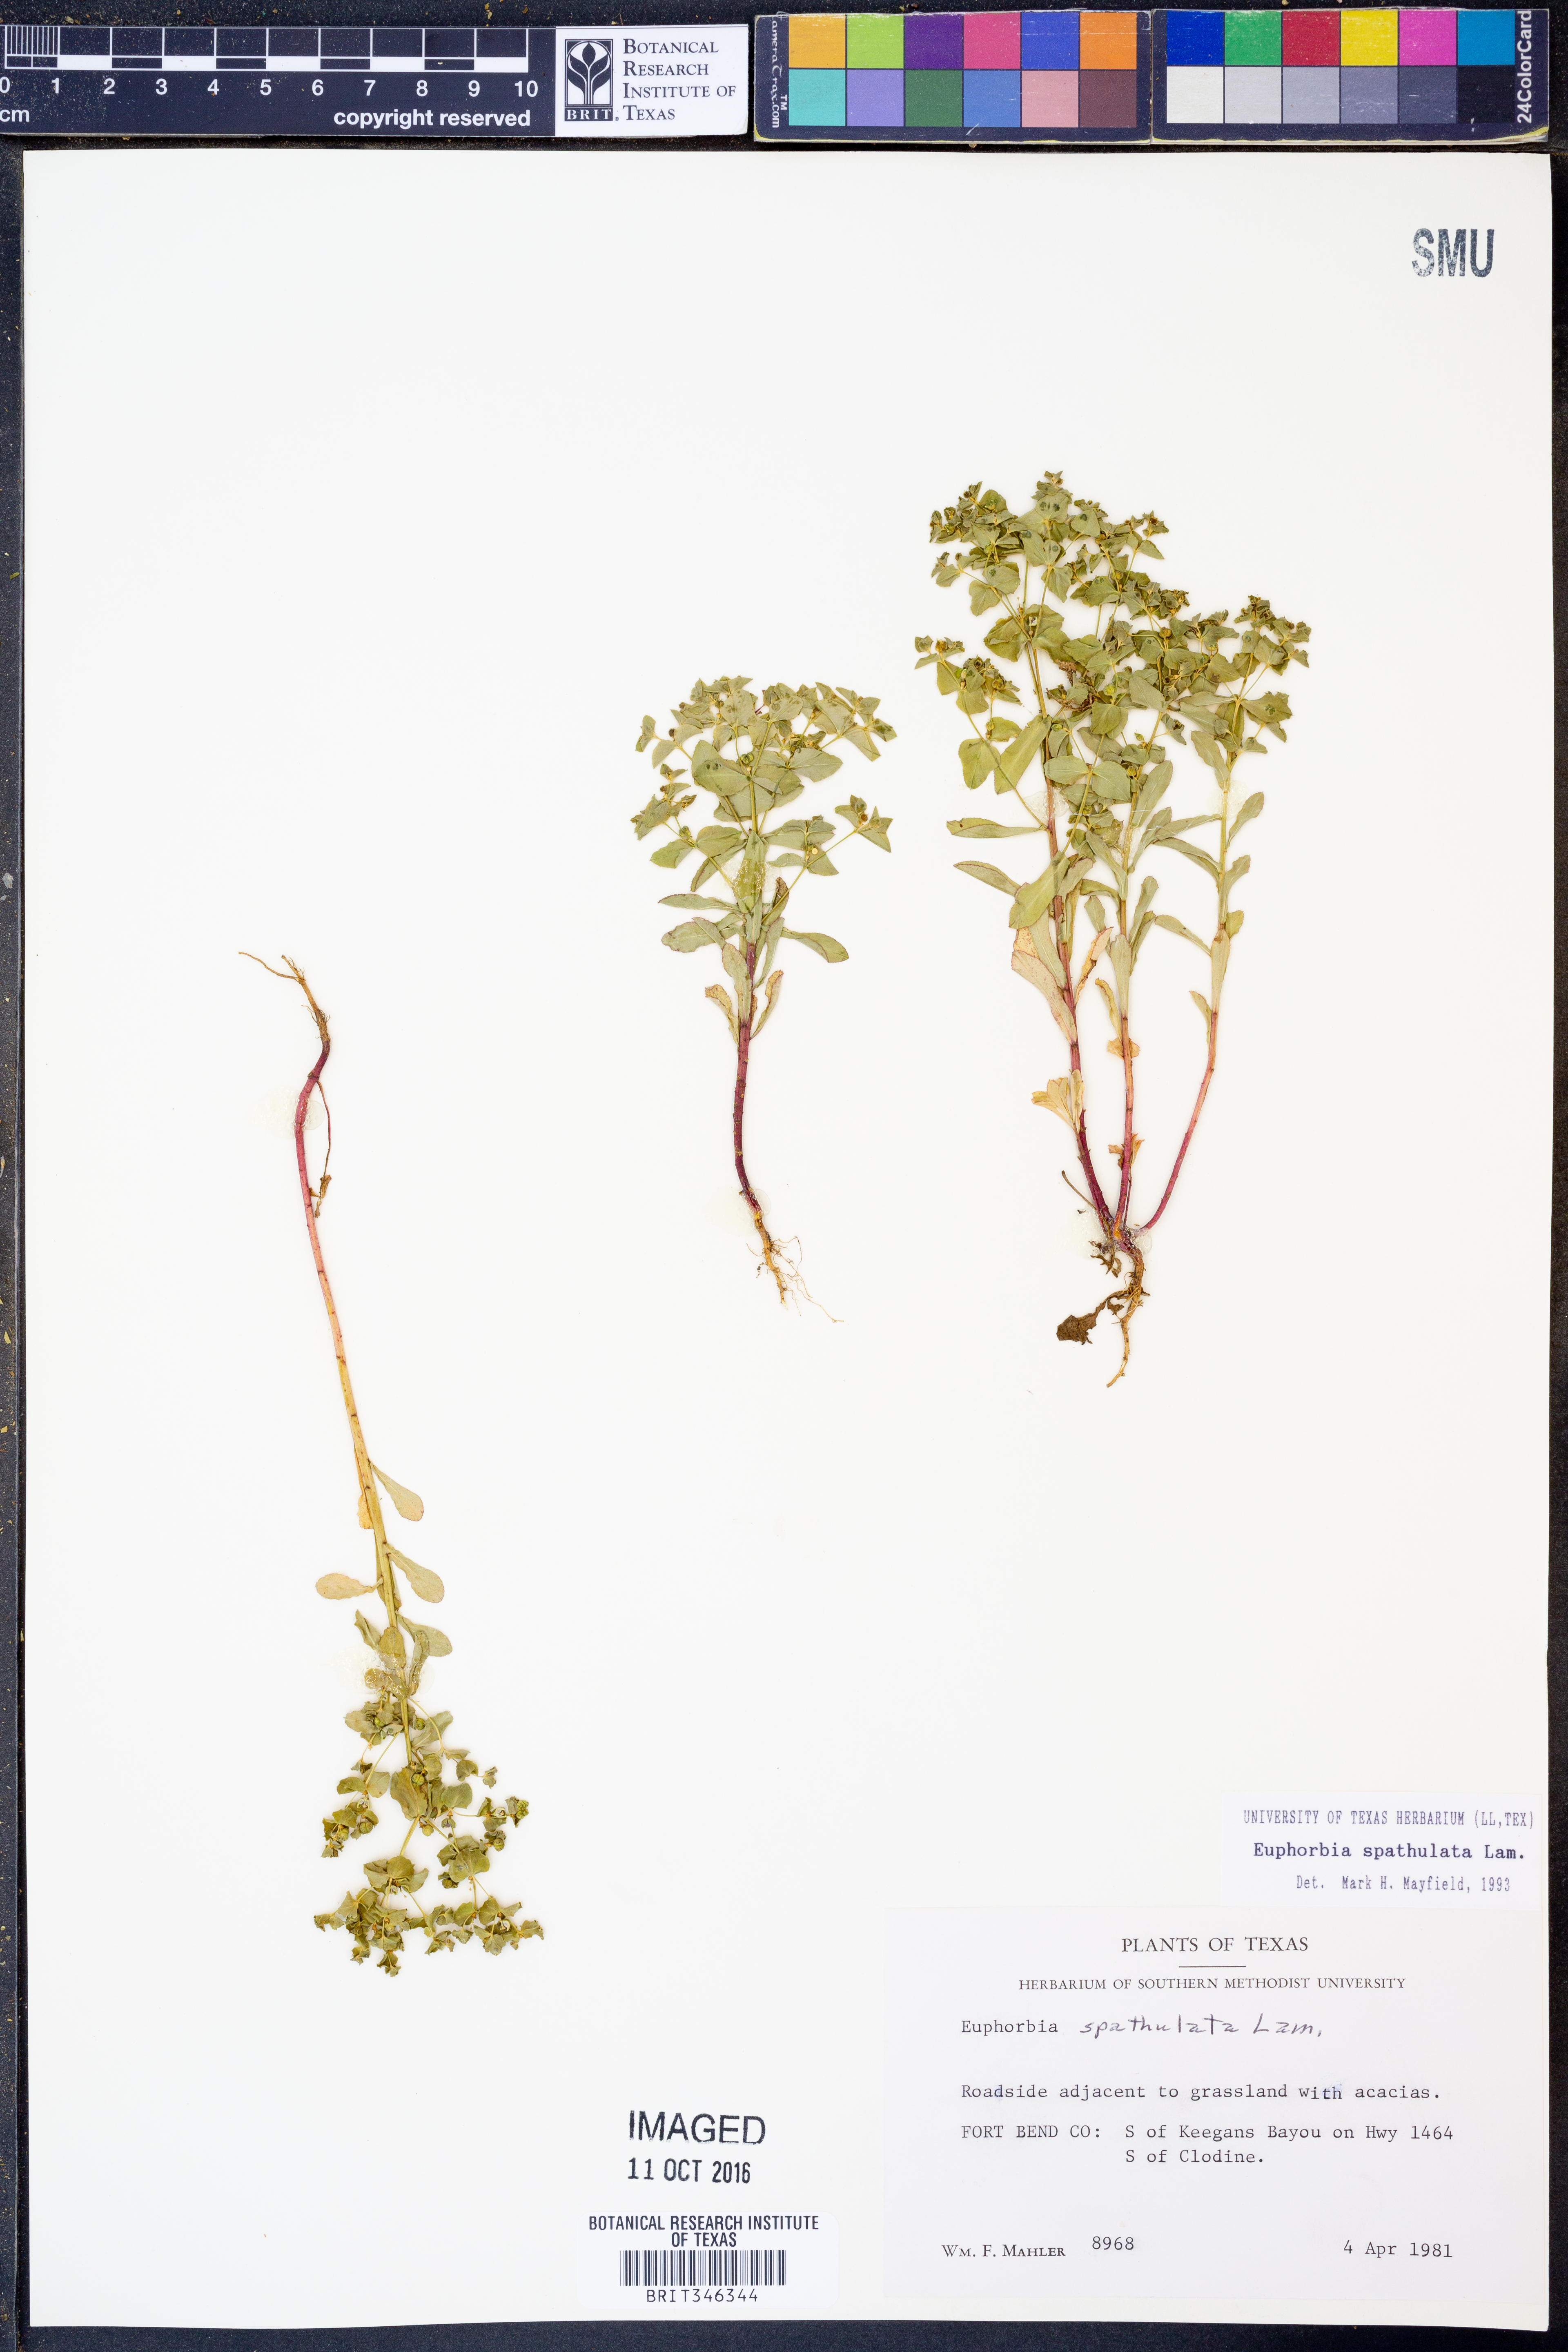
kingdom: Plantae
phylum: Tracheophyta
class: Magnoliopsida
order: Malpighiales
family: Euphorbiaceae
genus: Euphorbia
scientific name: Euphorbia spathulata
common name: Blunt spurge
